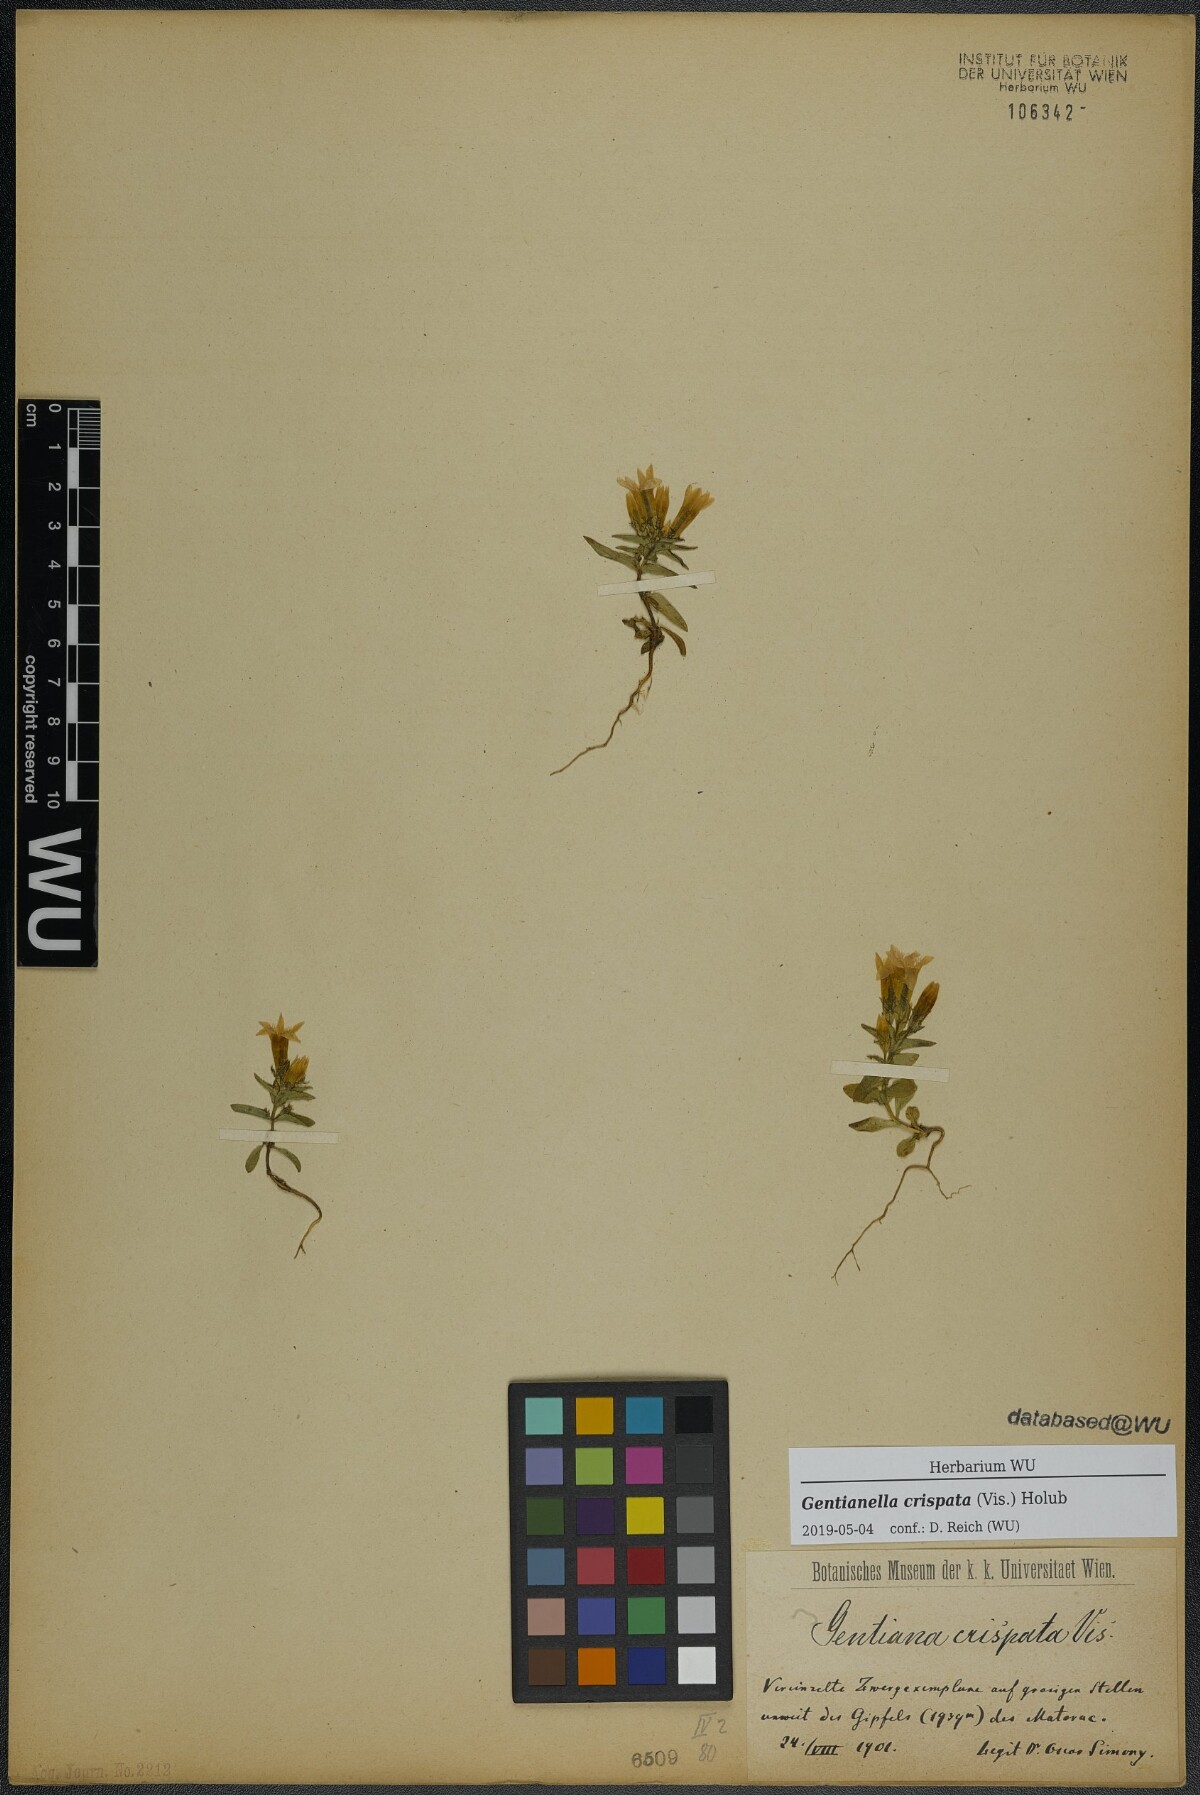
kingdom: Plantae
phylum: Tracheophyta
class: Magnoliopsida
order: Gentianales
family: Gentianaceae
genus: Gentianella
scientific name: Gentianella crispata
